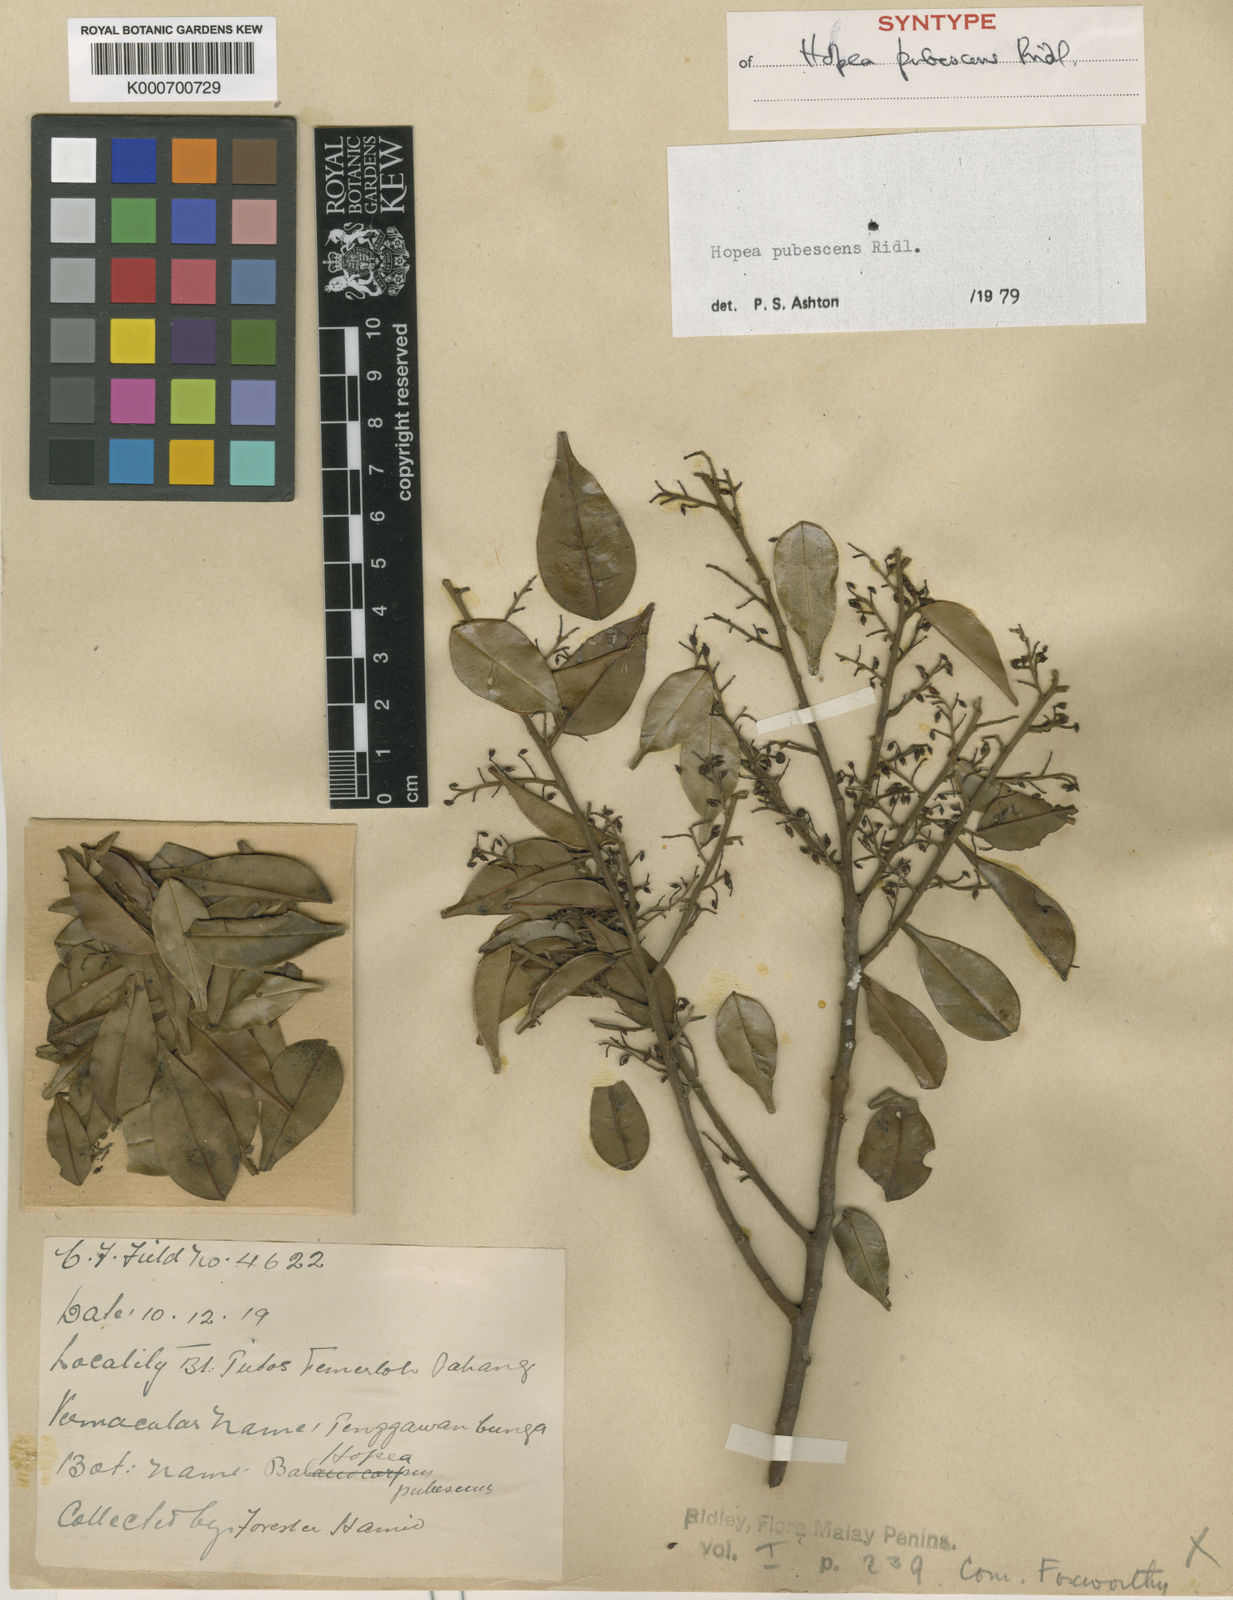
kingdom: Plantae
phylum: Tracheophyta
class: Magnoliopsida
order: Malvales
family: Dipterocarpaceae
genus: Hopea
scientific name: Hopea pubescens
